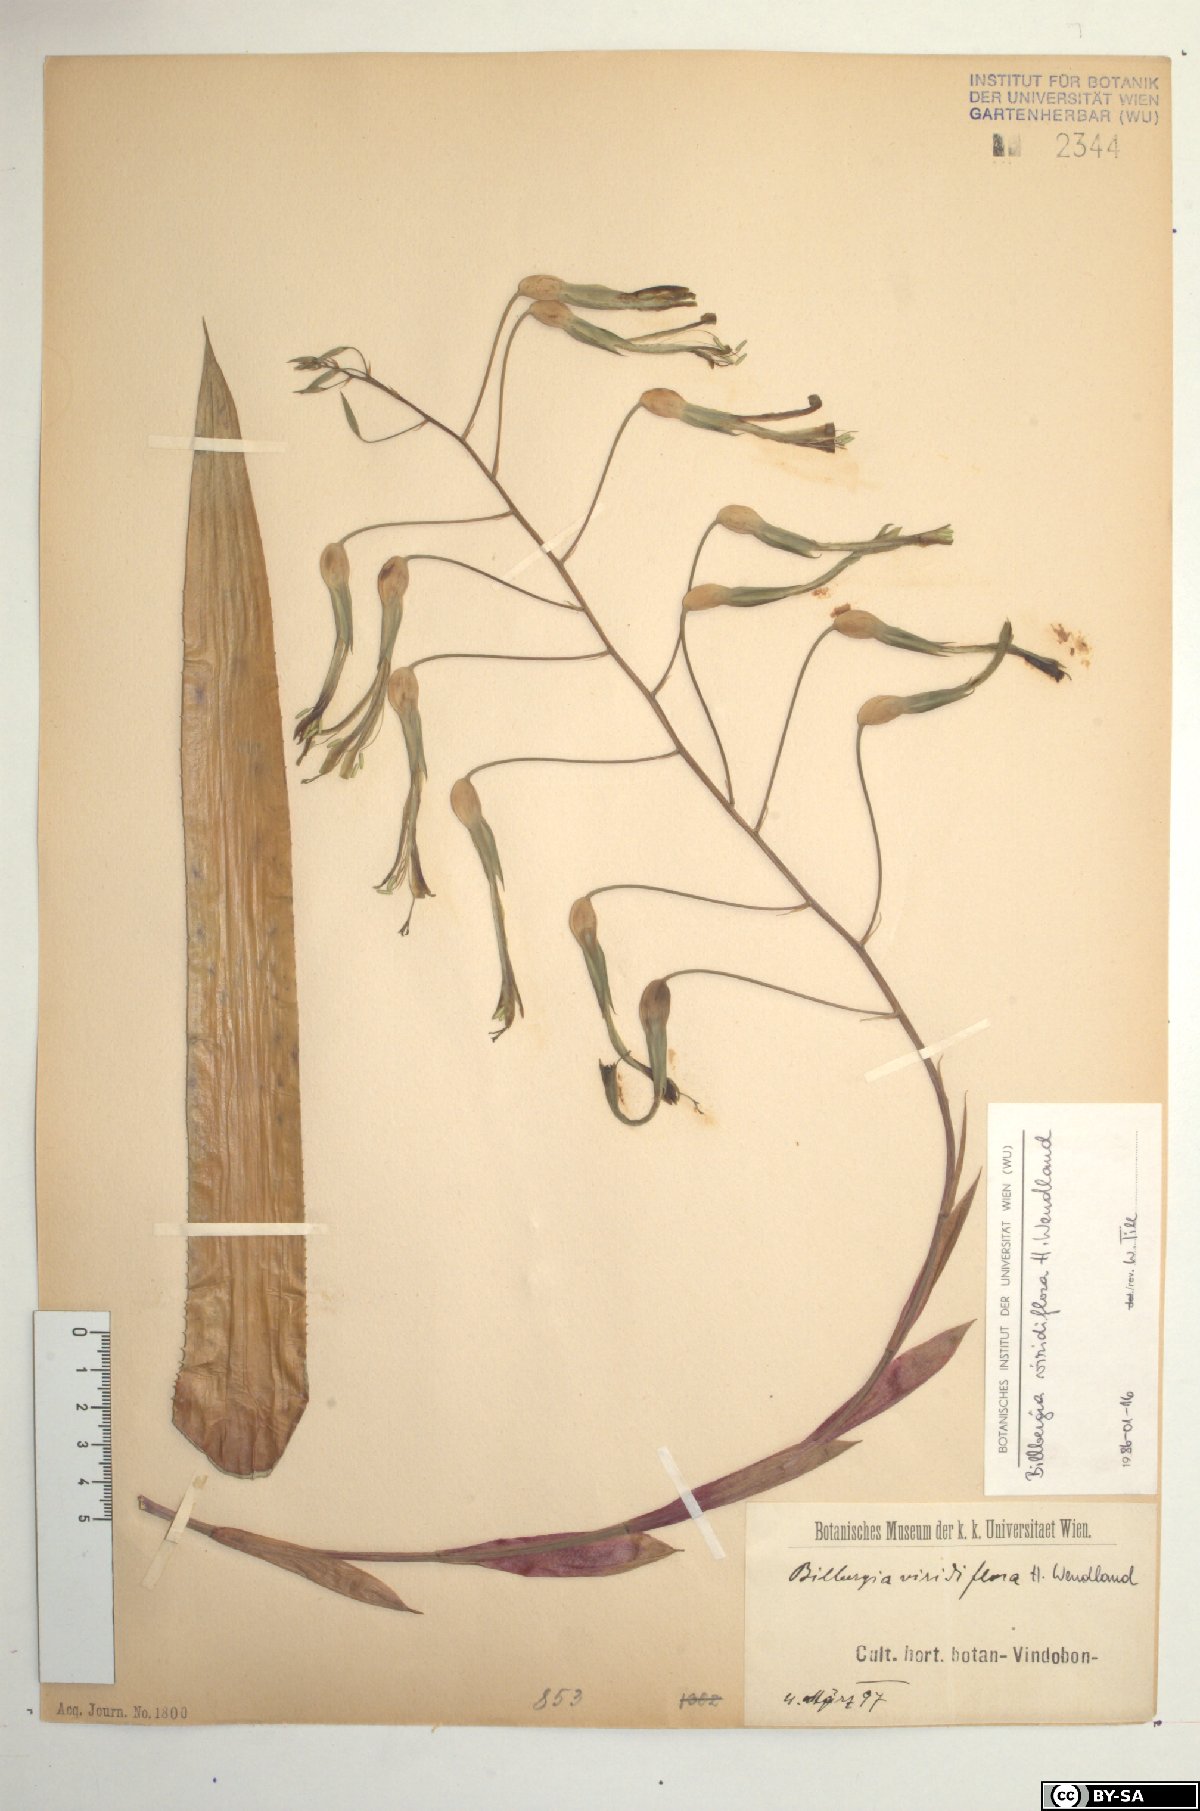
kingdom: Plantae
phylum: Tracheophyta
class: Liliopsida
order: Poales
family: Bromeliaceae
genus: Billbergia
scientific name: Billbergia viridiflora
